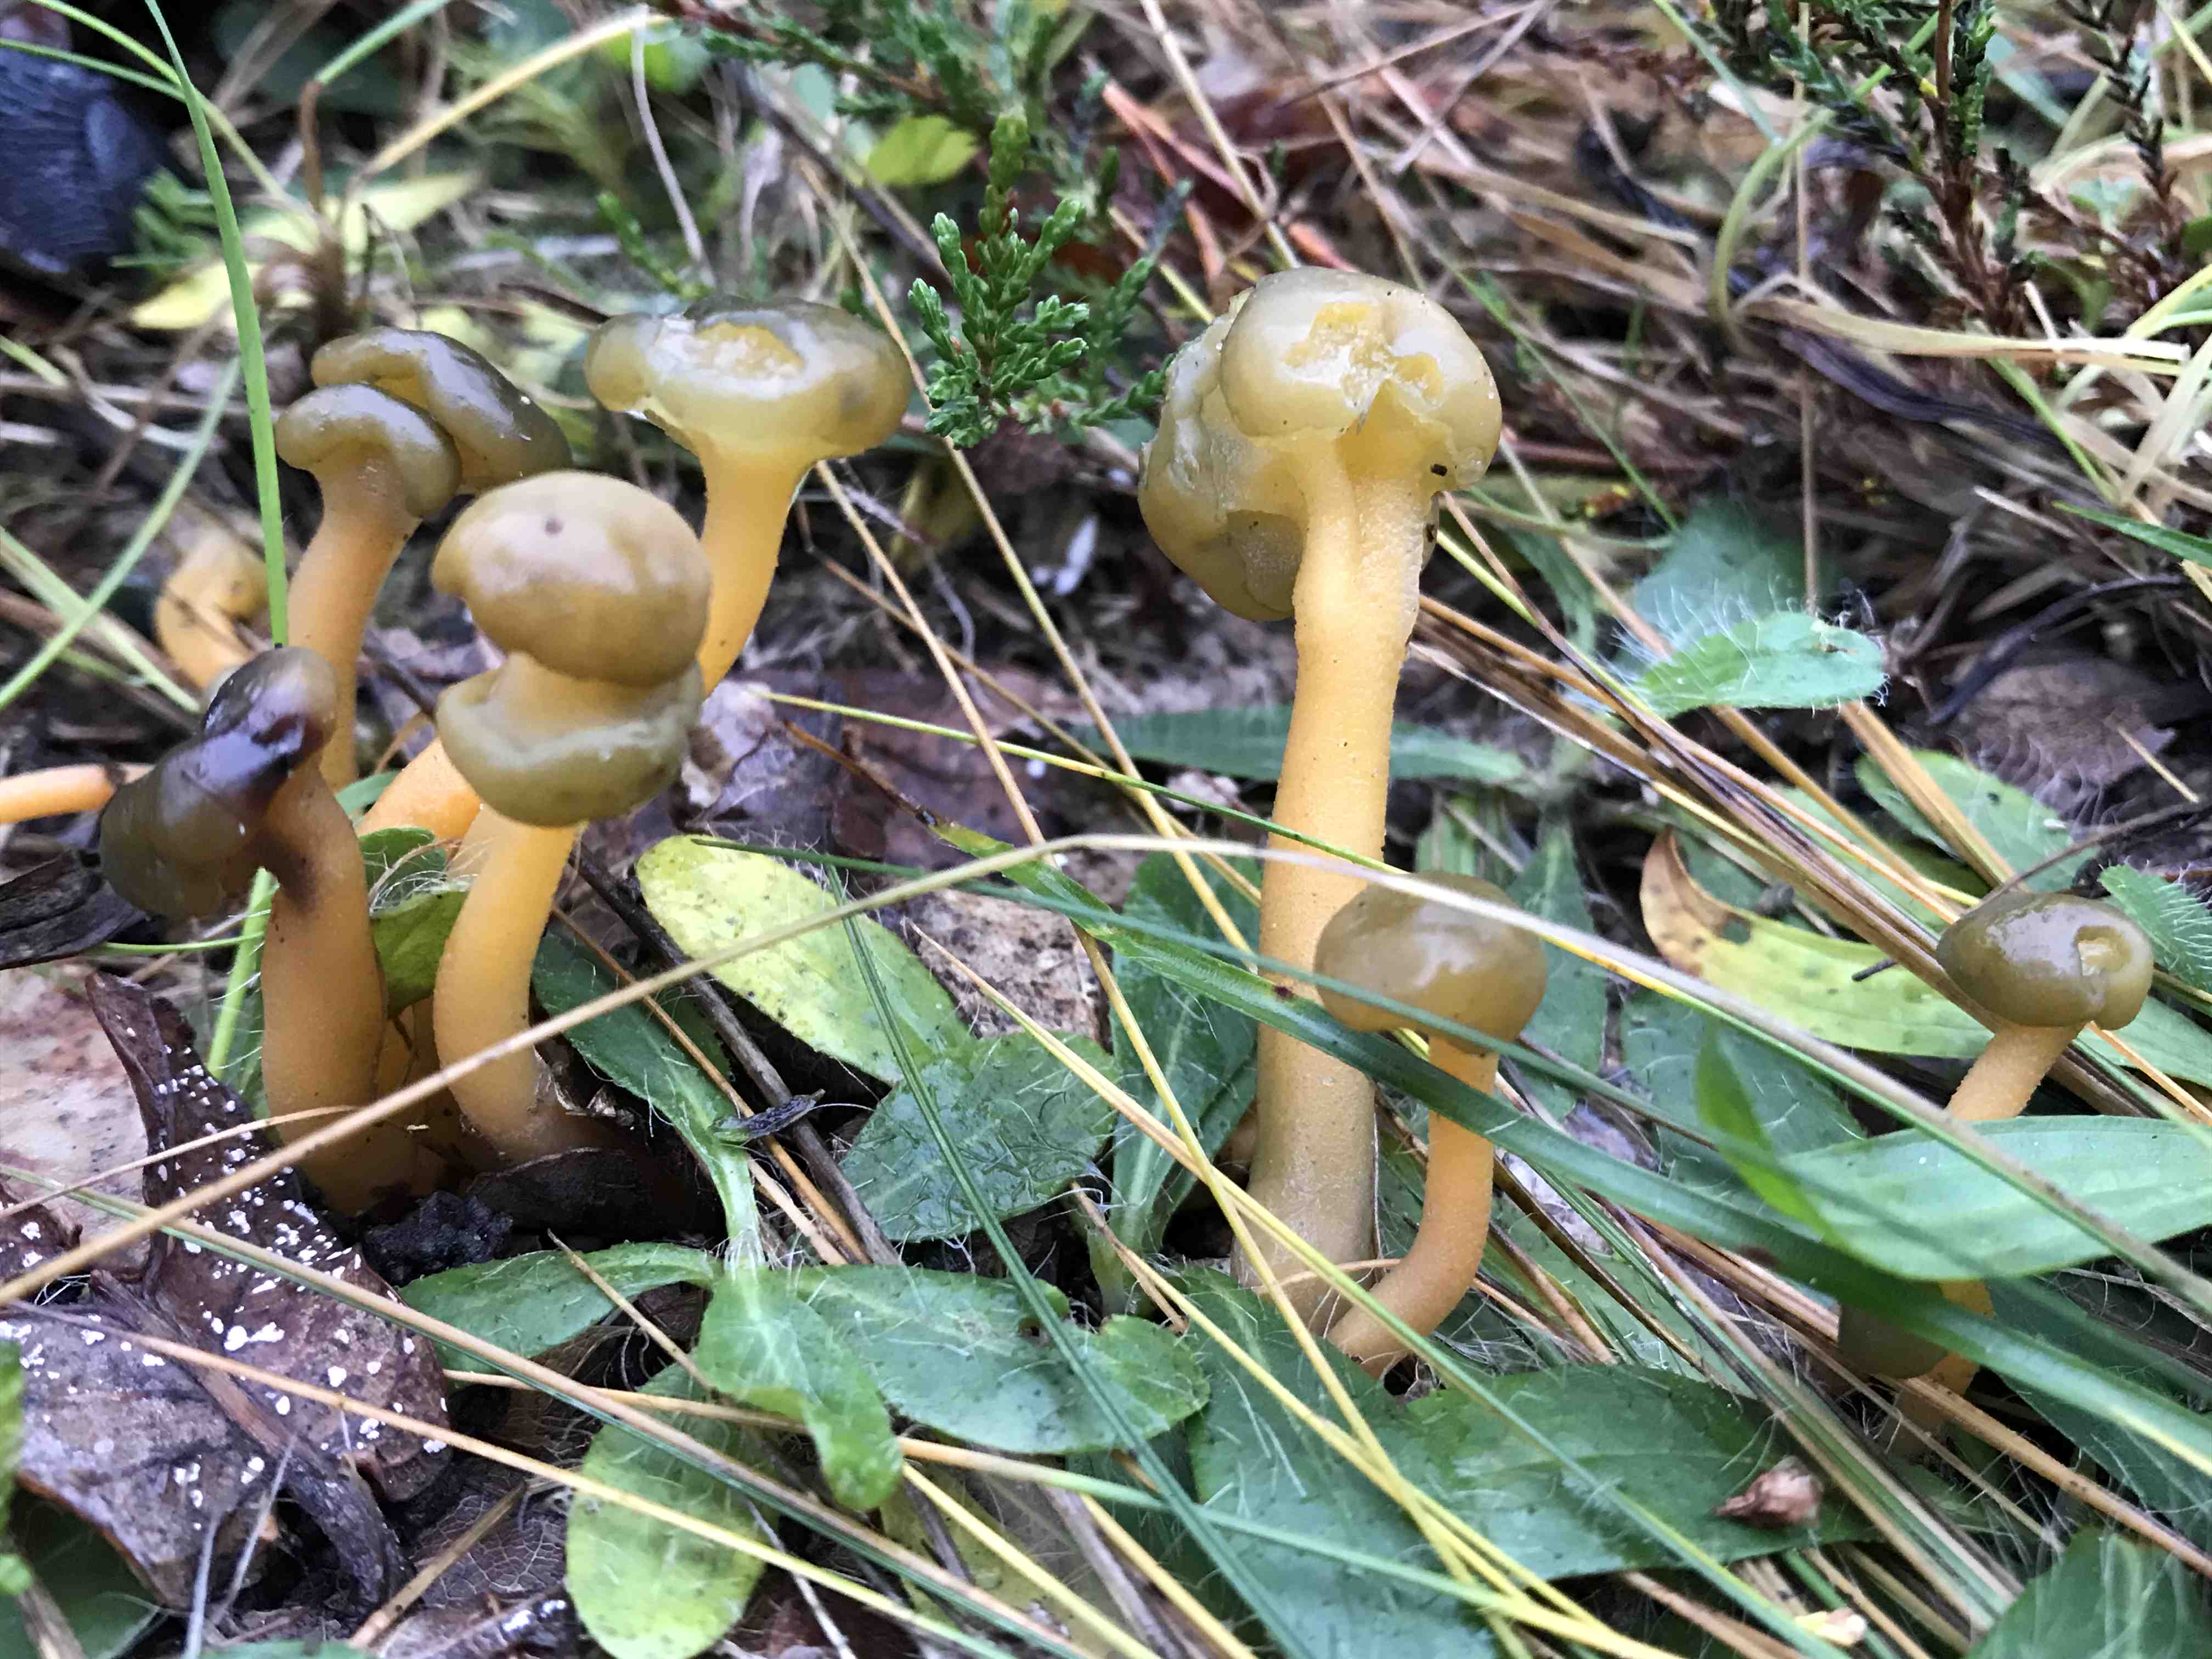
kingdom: Fungi
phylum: Ascomycota
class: Leotiomycetes
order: Leotiales
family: Leotiaceae
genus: Leotia
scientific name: Leotia lubrica
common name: ravsvamp
